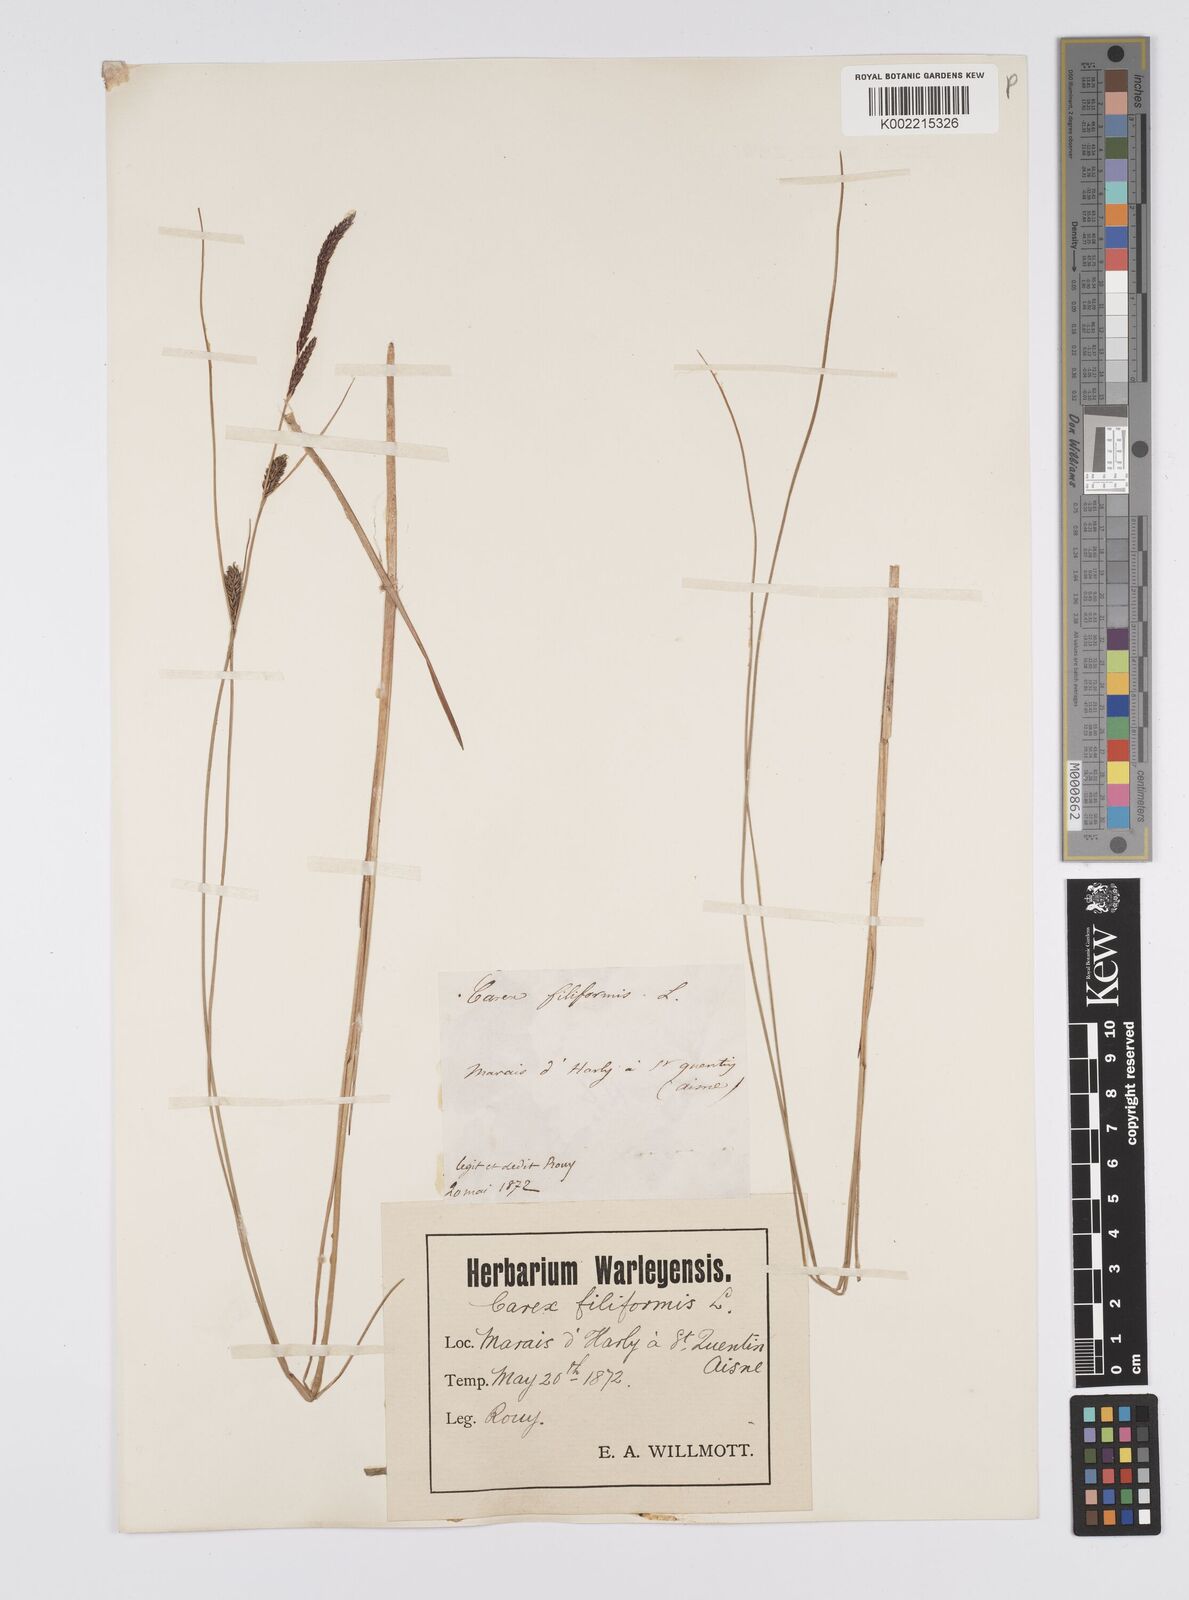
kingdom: Plantae
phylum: Tracheophyta
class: Liliopsida
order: Poales
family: Cyperaceae
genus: Carex
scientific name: Carex lasiocarpa
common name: Slender sedge
